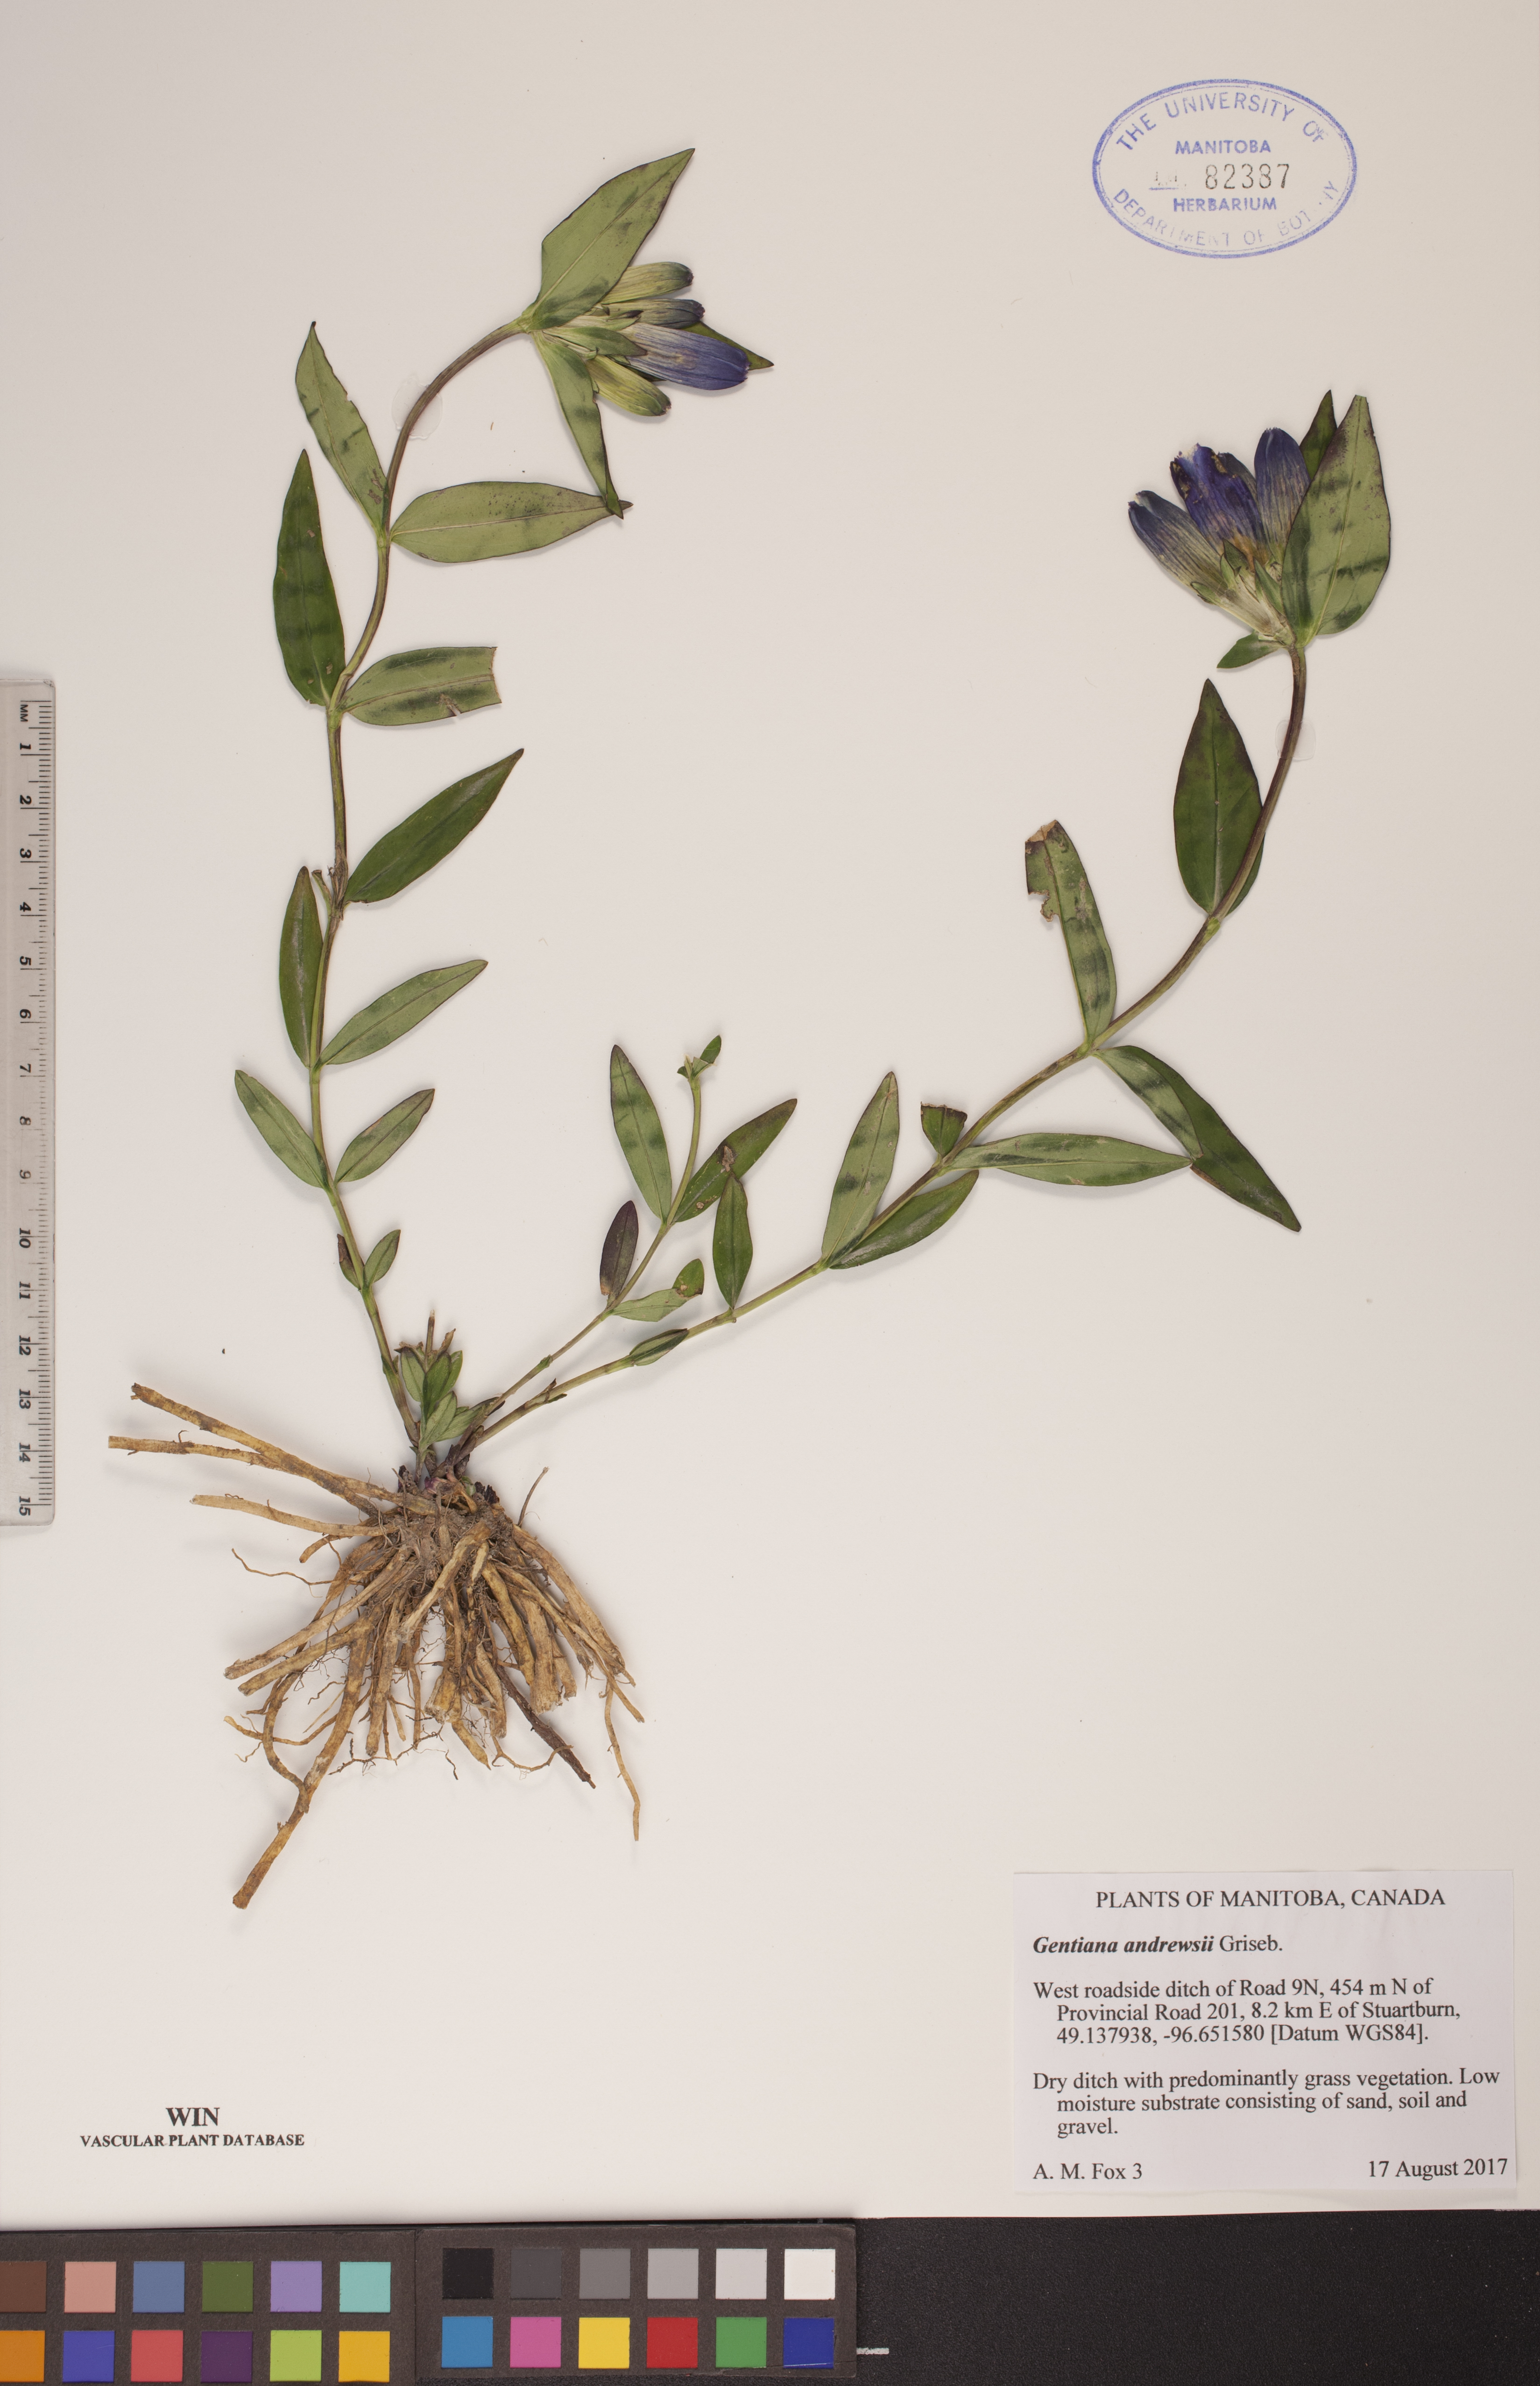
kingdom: Plantae
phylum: Tracheophyta
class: Magnoliopsida
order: Gentianales
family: Gentianaceae
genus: Gentiana
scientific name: Gentiana andrewsii
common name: Bottle gentian
